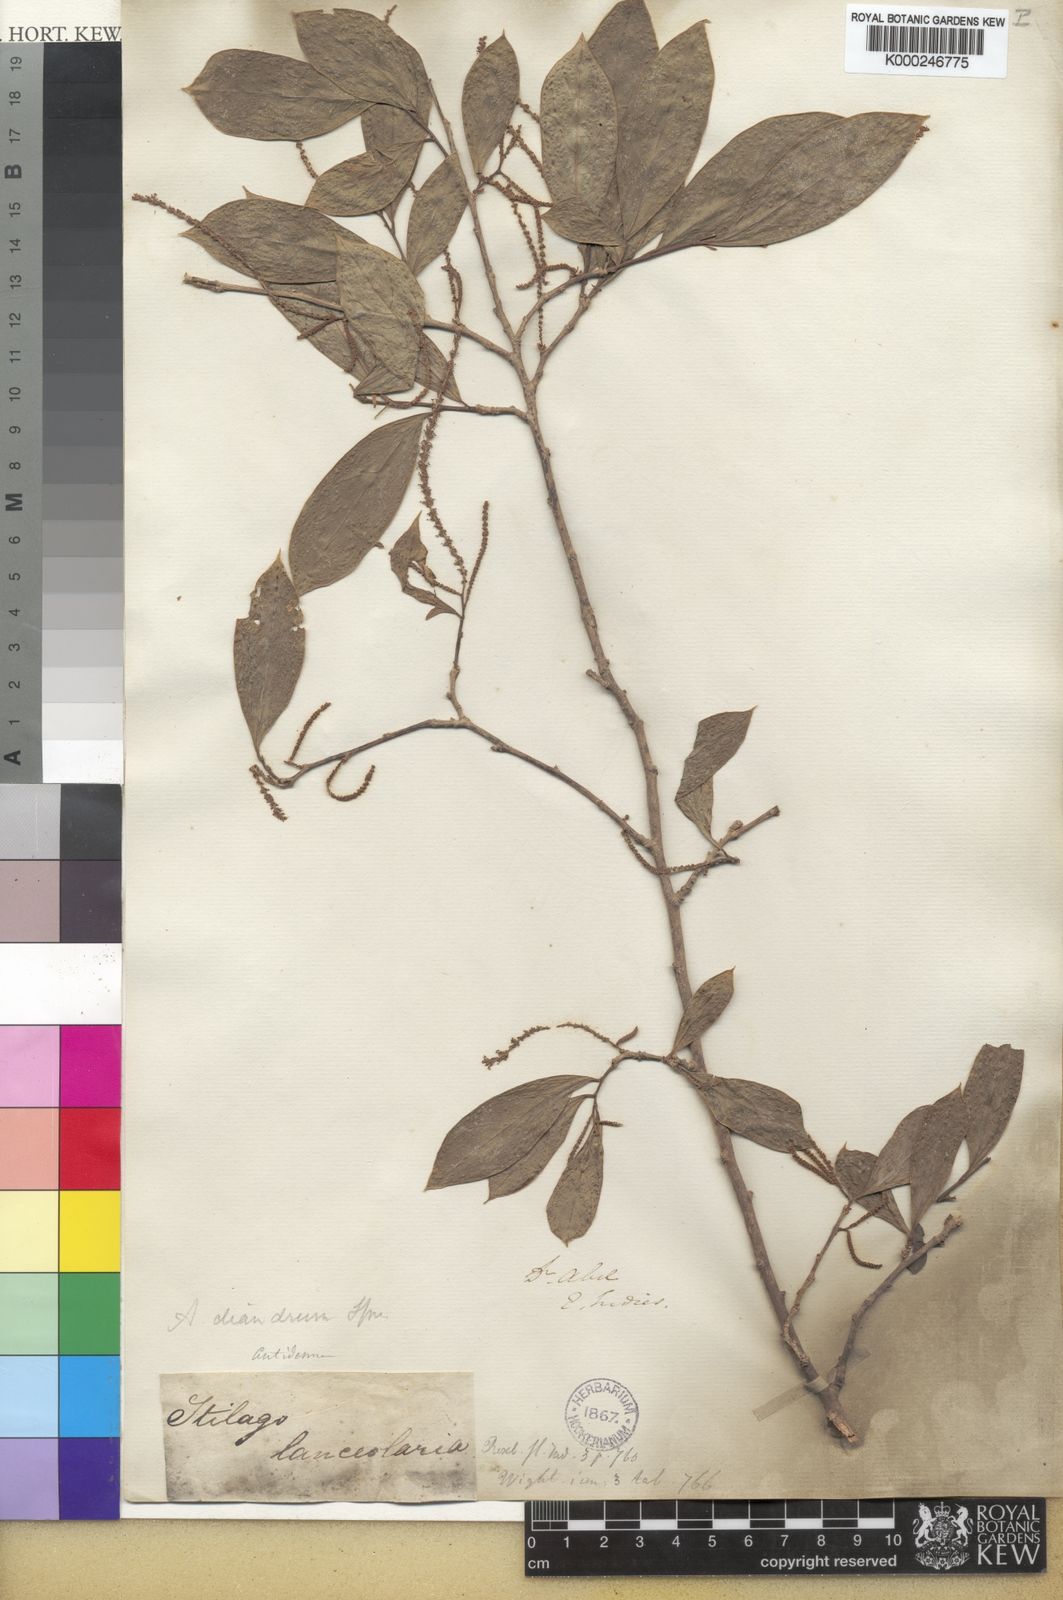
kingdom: Plantae
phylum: Tracheophyta
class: Magnoliopsida
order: Malpighiales
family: Phyllanthaceae
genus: Antidesma
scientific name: Antidesma acidum
